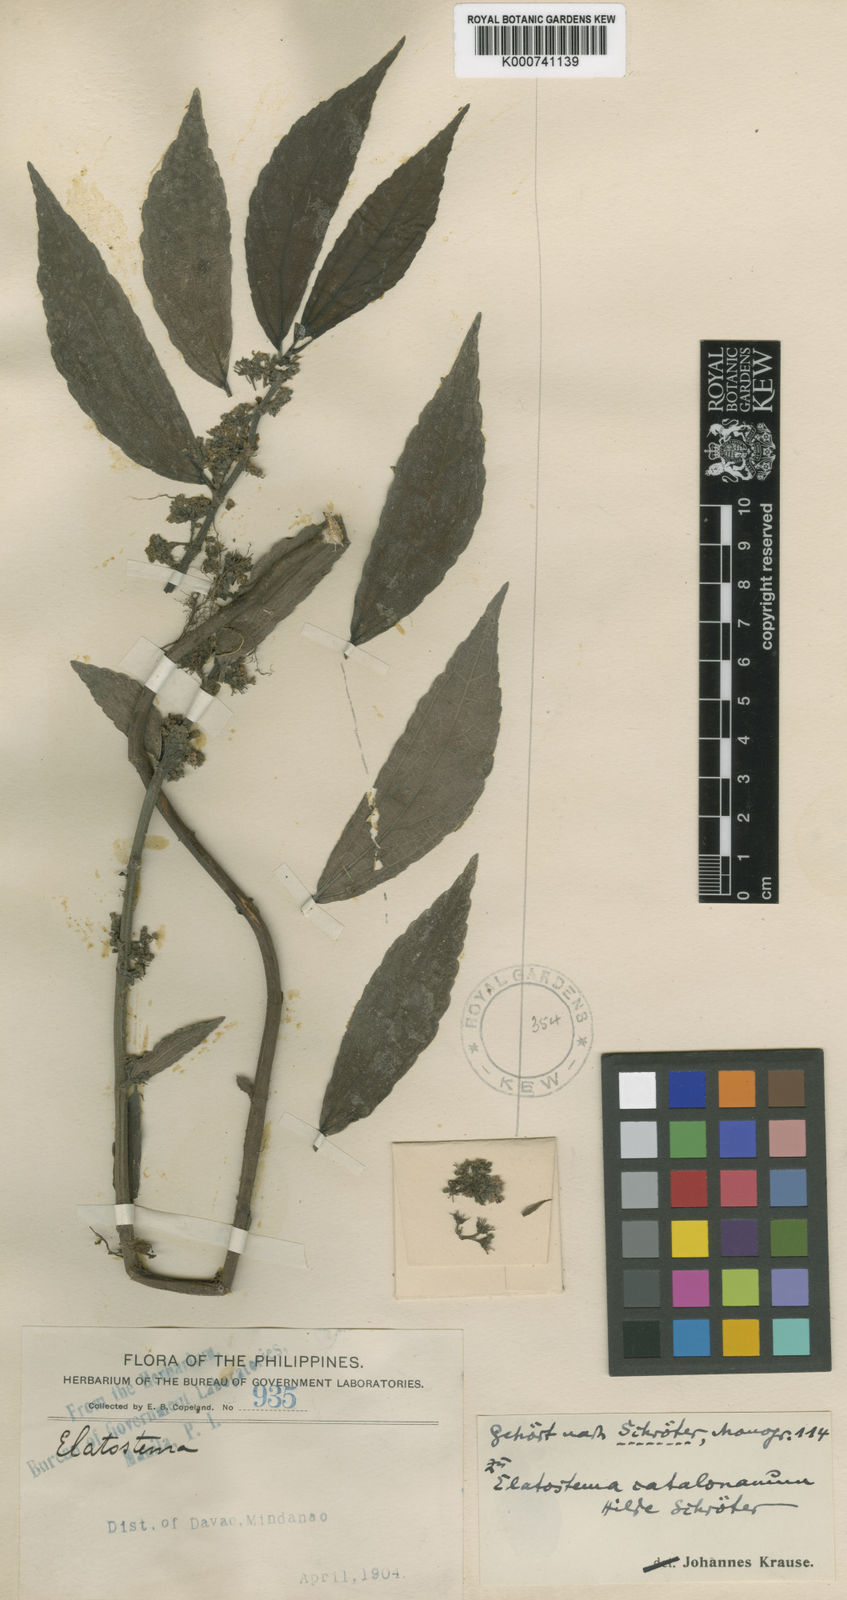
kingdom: Plantae
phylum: Tracheophyta
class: Magnoliopsida
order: Rosales
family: Urticaceae
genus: Elatostematoides
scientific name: Elatostematoides mindanaense
